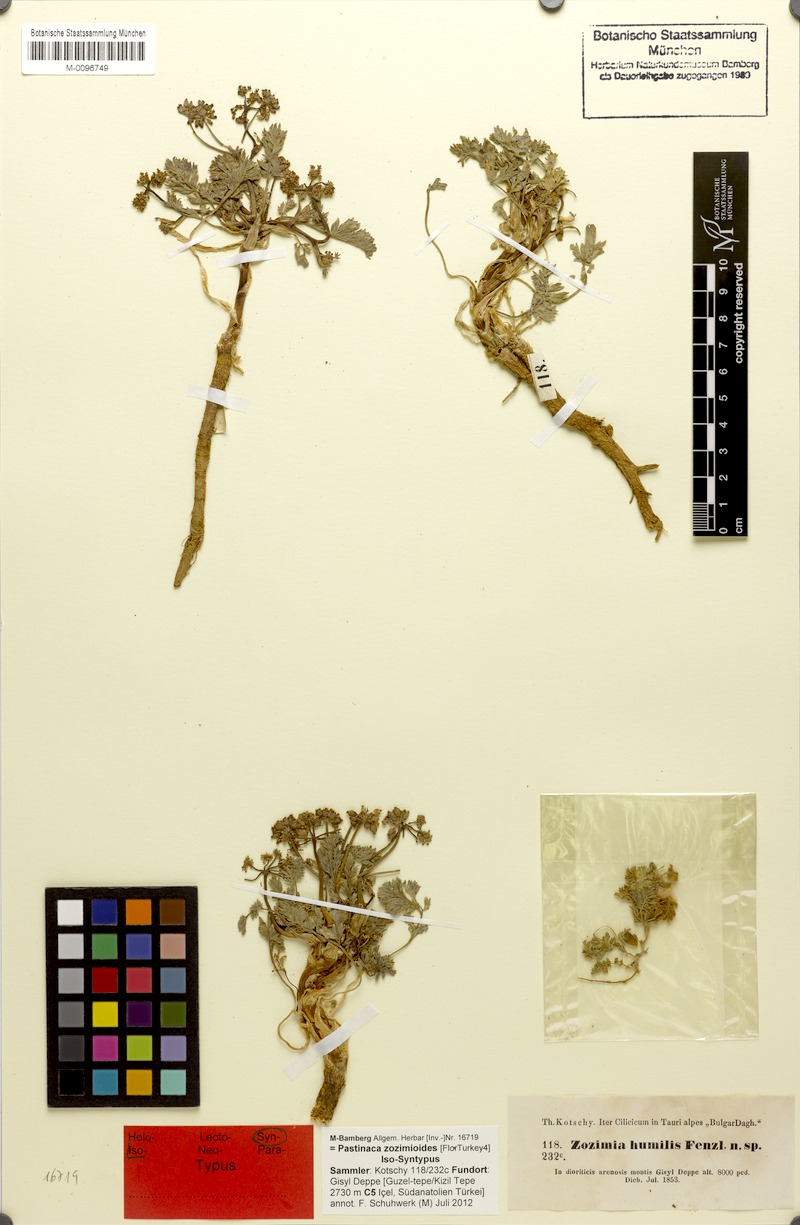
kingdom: Plantae
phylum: Tracheophyta
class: Magnoliopsida
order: Apiales
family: Apiaceae
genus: Pastinaca
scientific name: Pastinaca zozimoides
